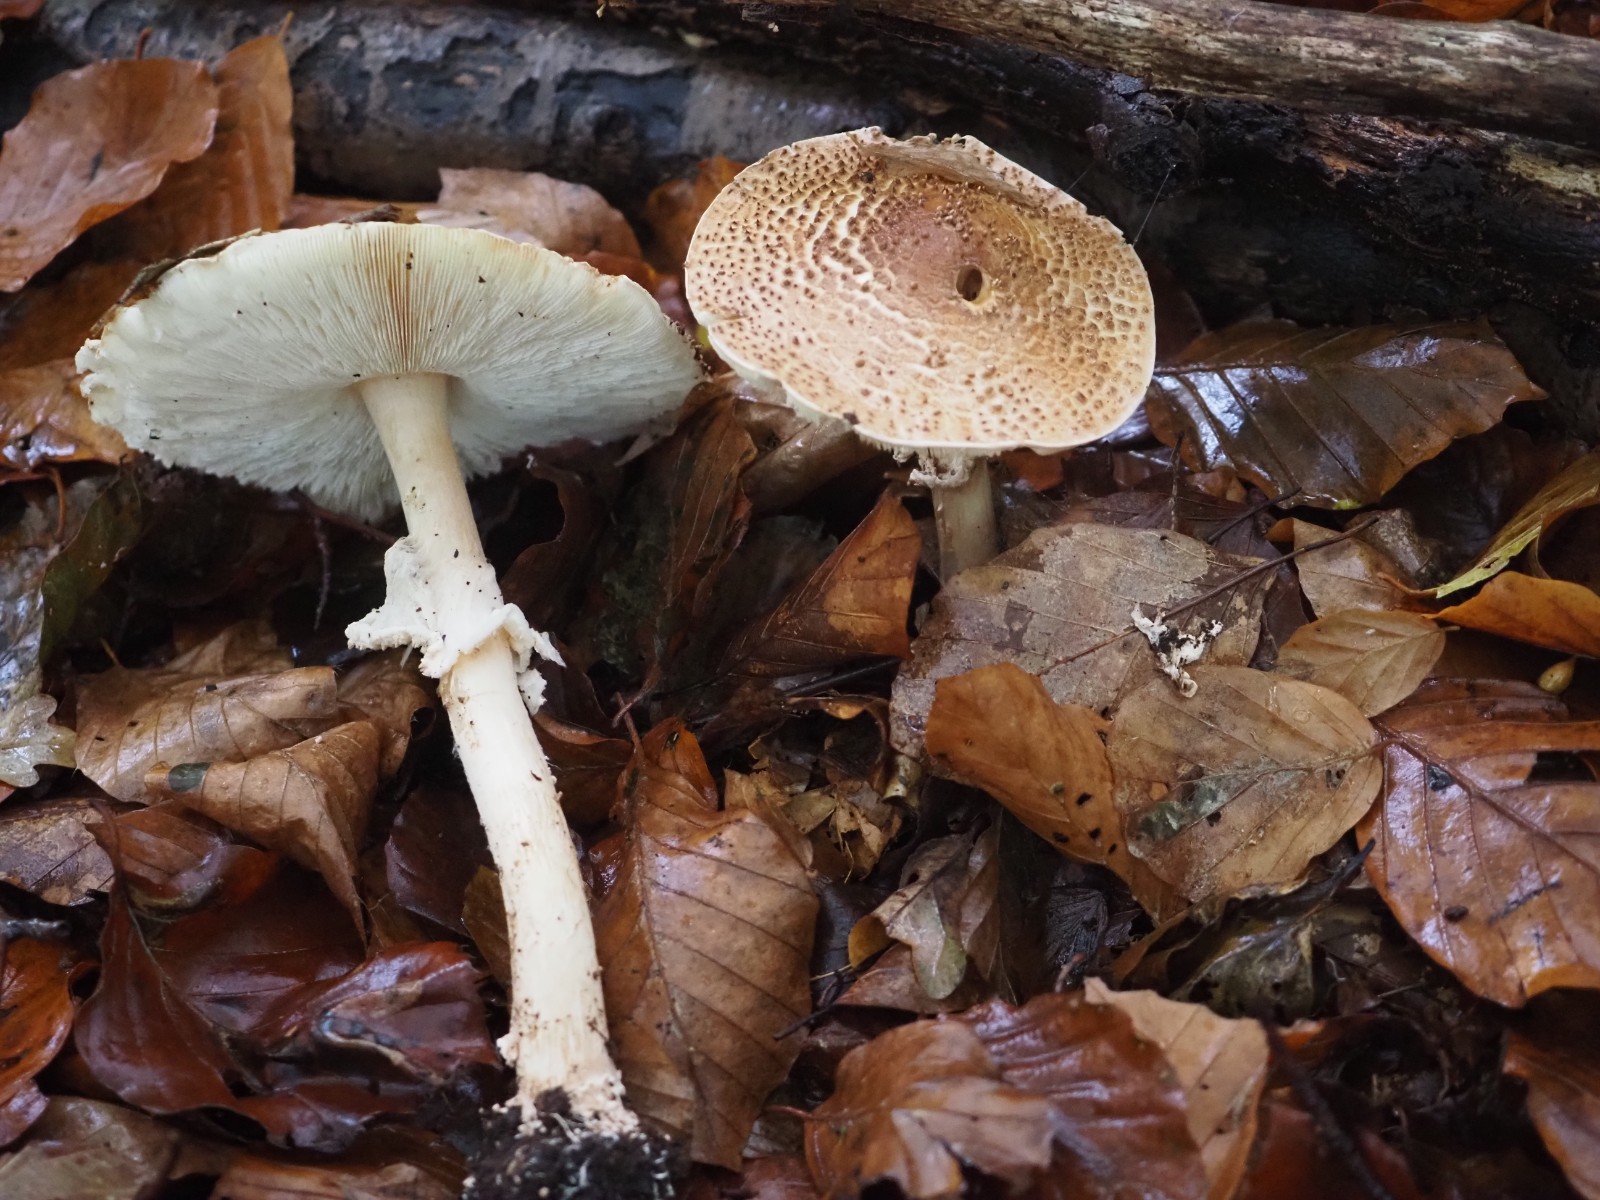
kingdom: Fungi
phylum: Basidiomycota
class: Agaricomycetes
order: Agaricales
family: Agaricaceae
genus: Echinoderma
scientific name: Echinoderma asperum
